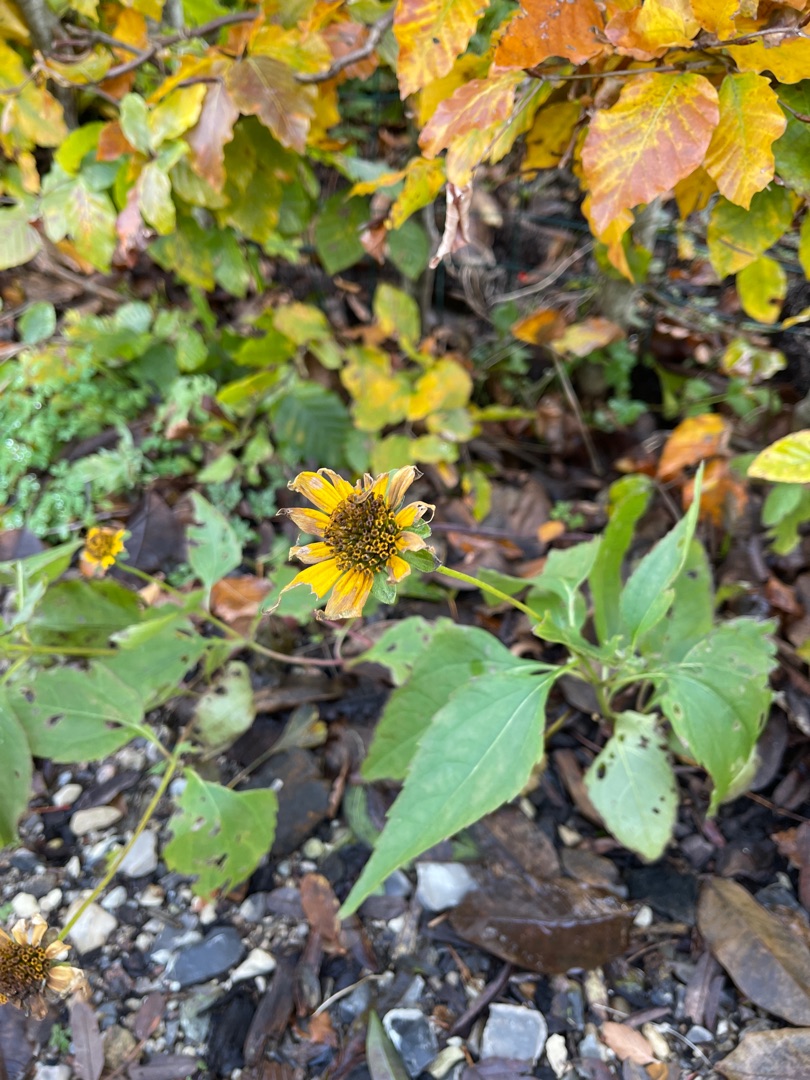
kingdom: Plantae
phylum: Tracheophyta
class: Magnoliopsida
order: Asterales
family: Asteraceae
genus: Helianthus
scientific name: Helianthus decapetalus
